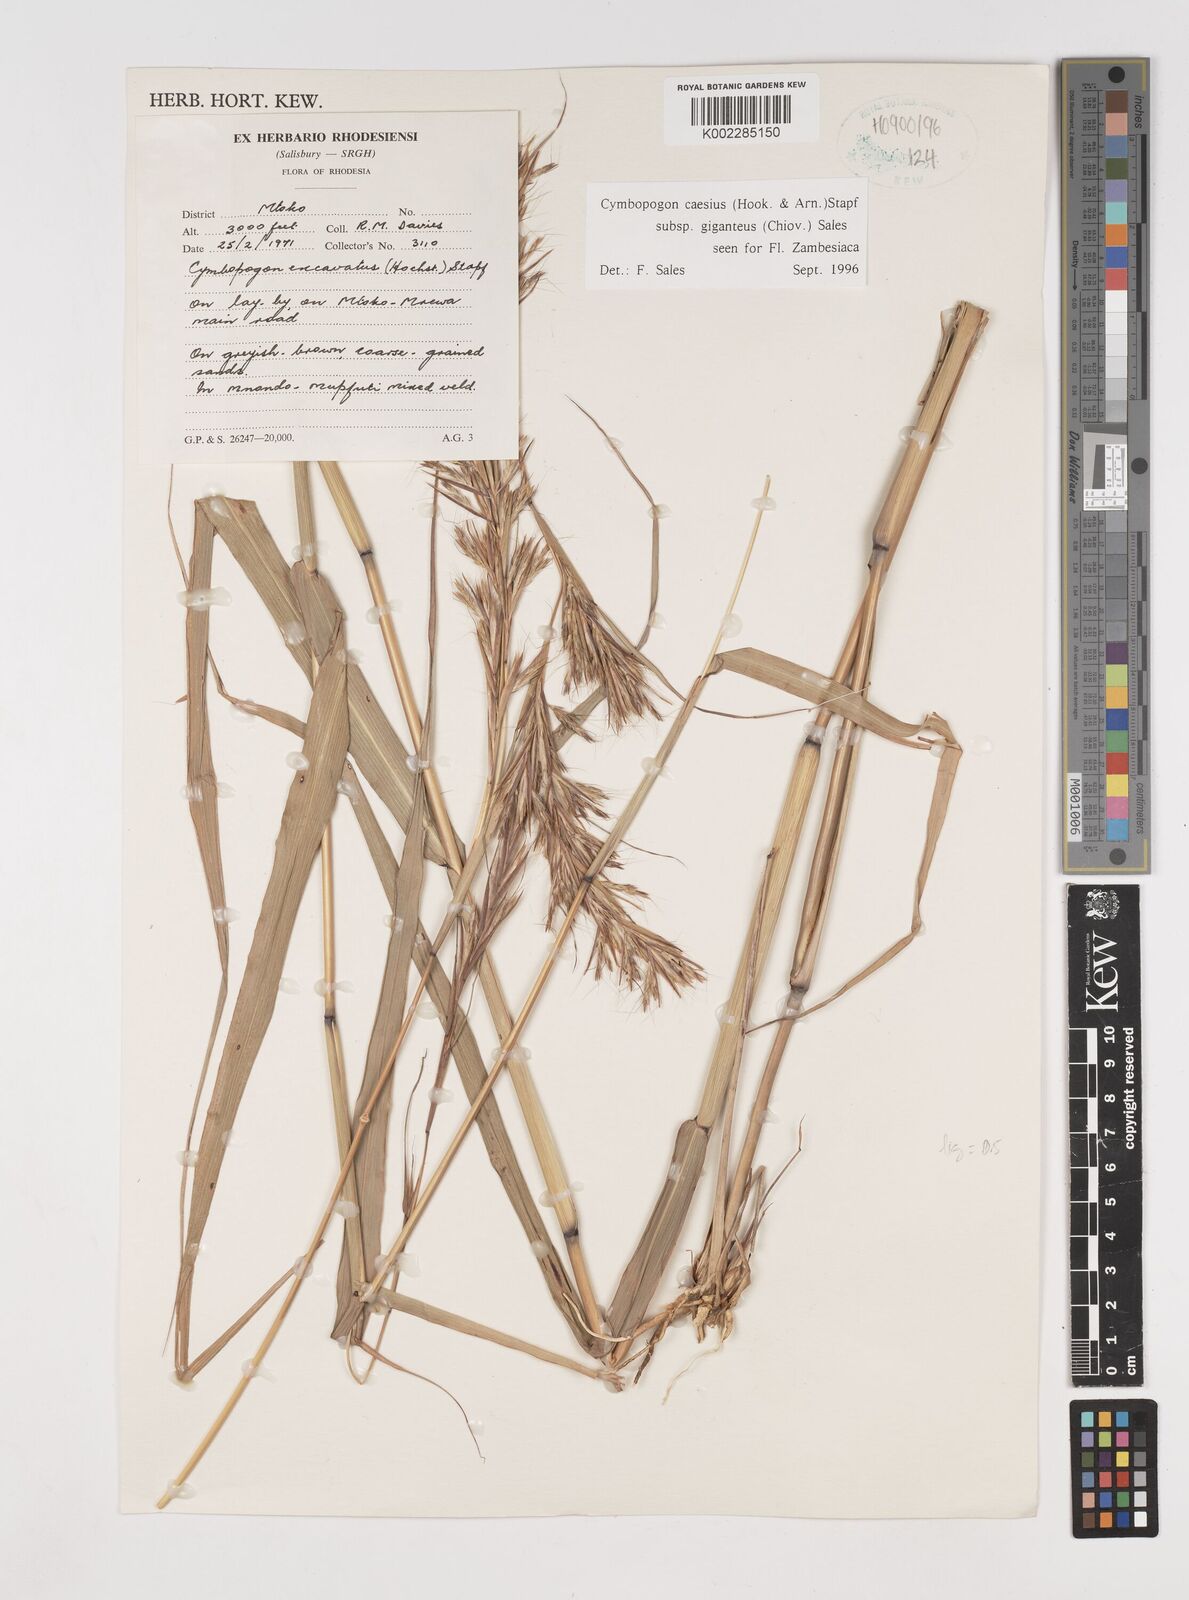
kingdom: Plantae
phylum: Tracheophyta
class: Liliopsida
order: Poales
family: Poaceae
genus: Cymbopogon
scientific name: Cymbopogon giganteus
